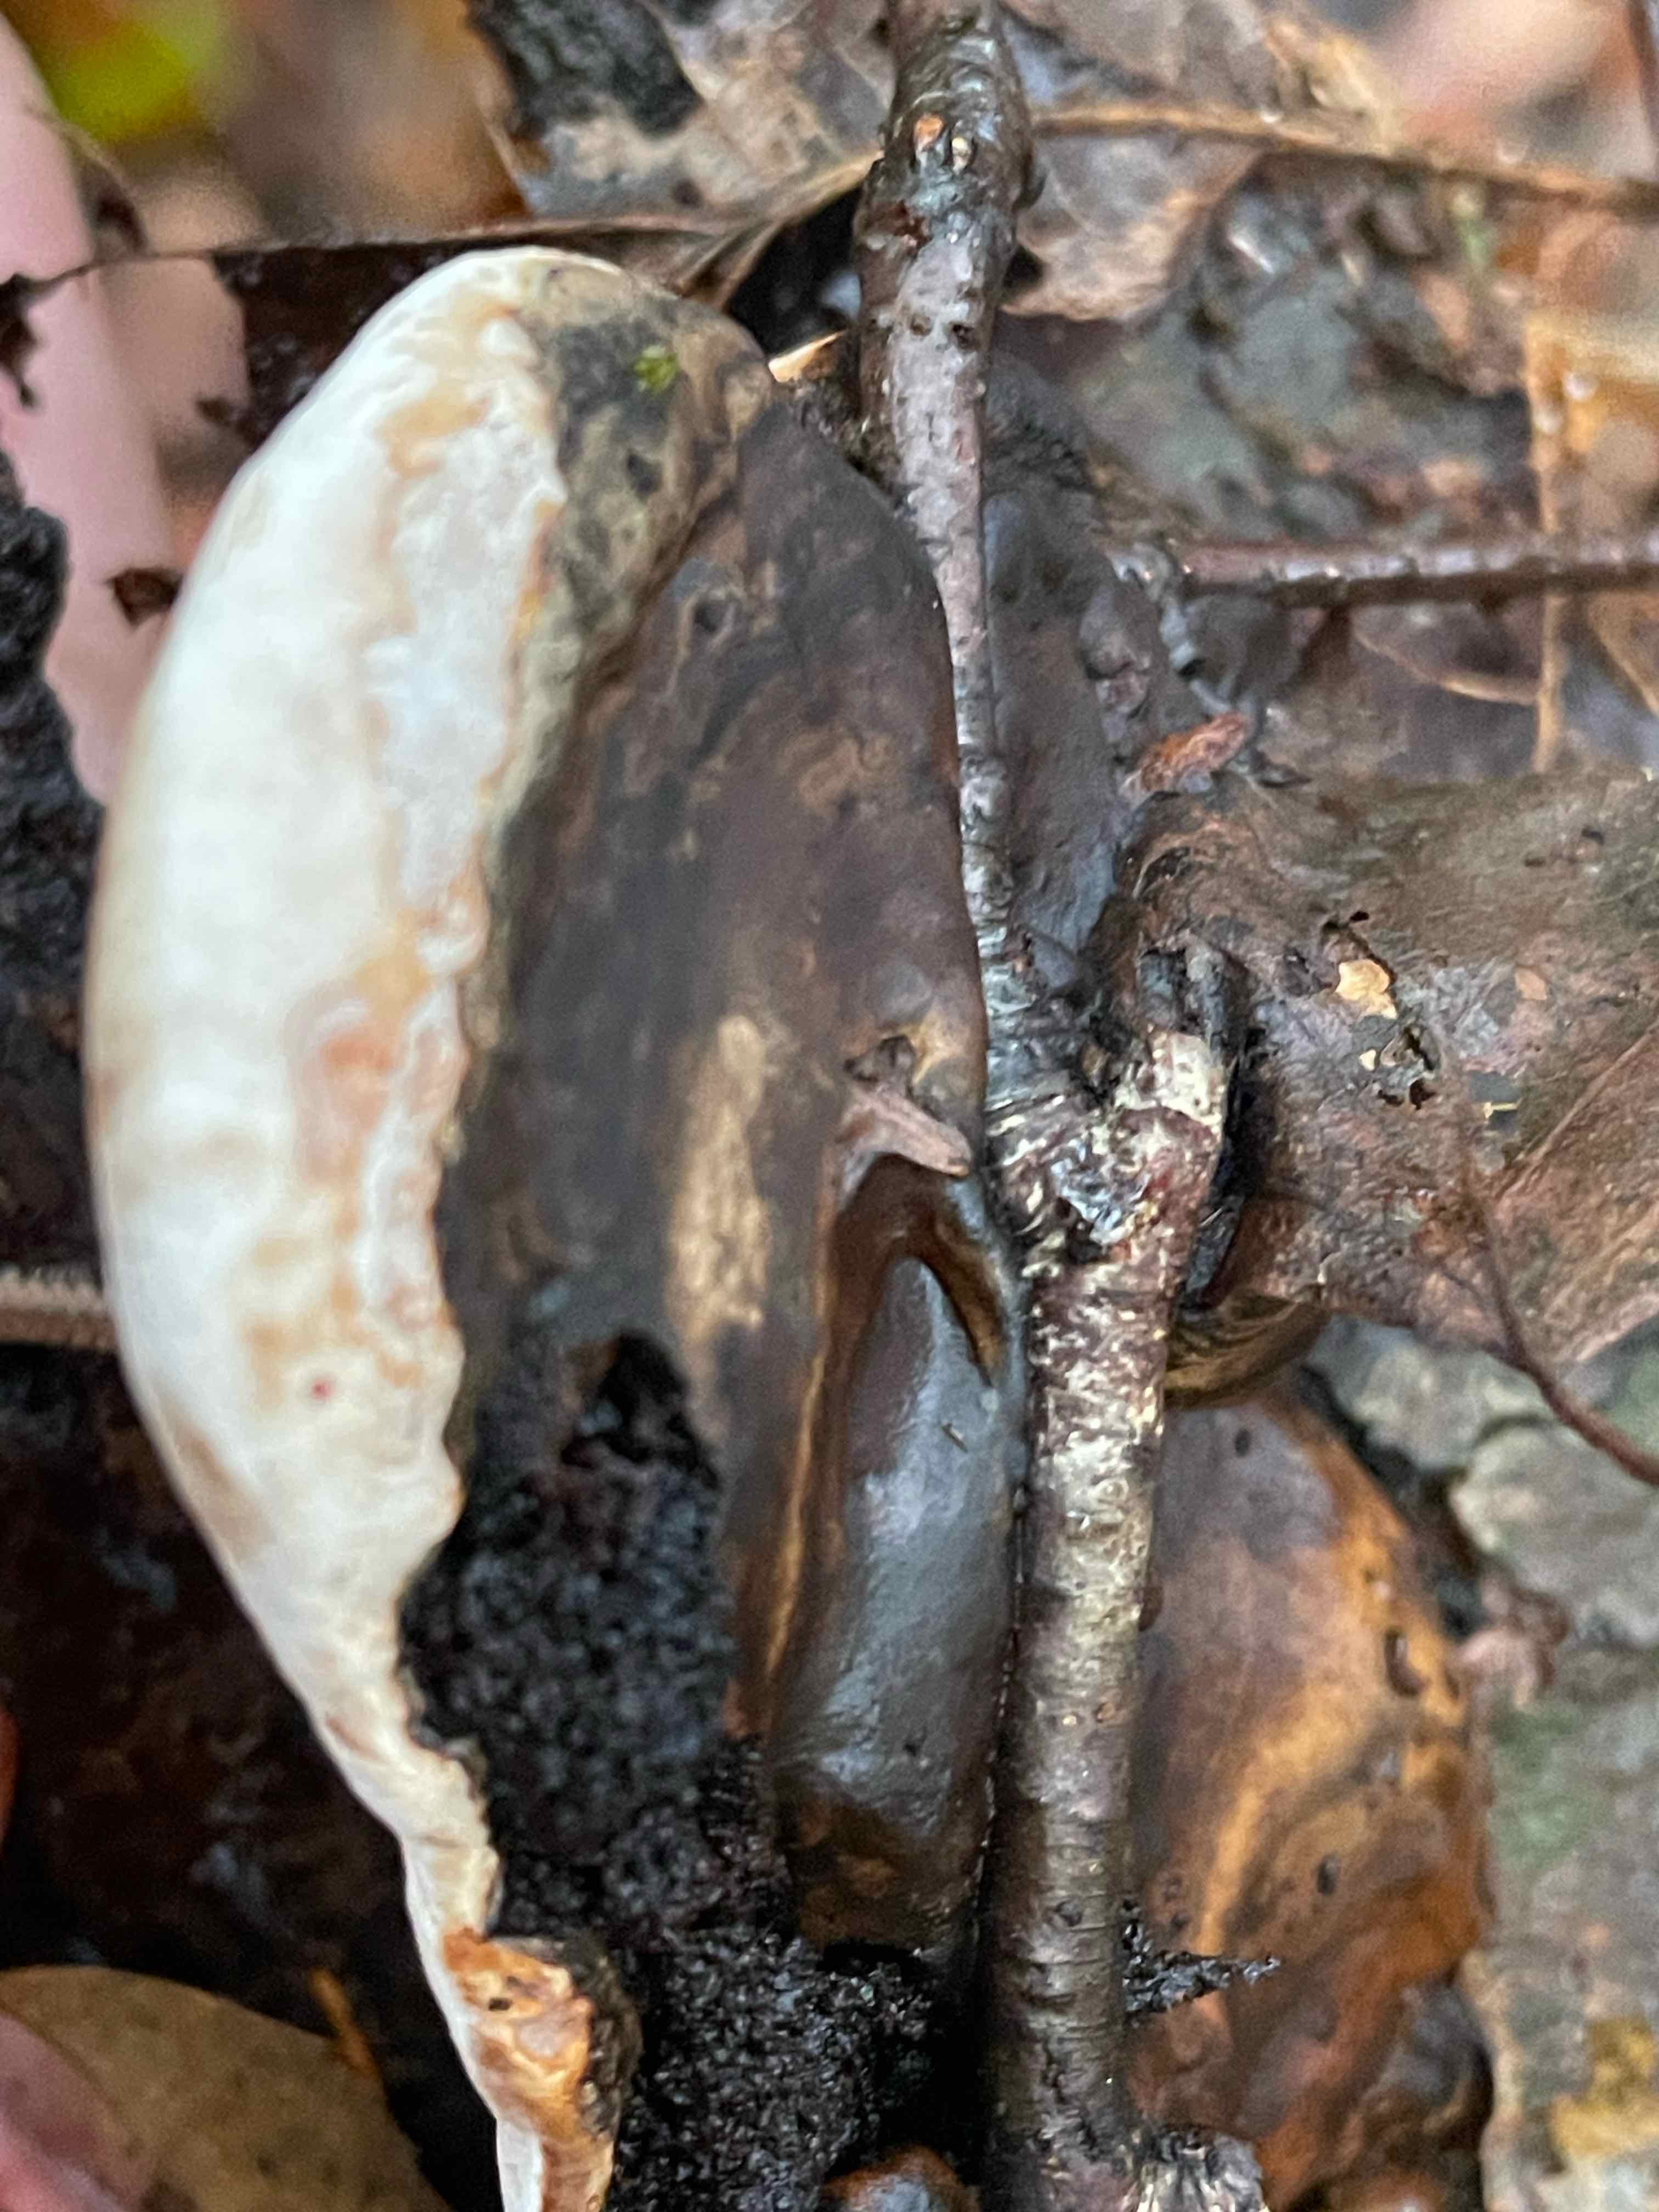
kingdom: Fungi
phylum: Basidiomycota
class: Agaricomycetes
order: Polyporales
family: Polyporaceae
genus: Ganoderma
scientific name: Ganoderma applanatum
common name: flad lakporesvamp
